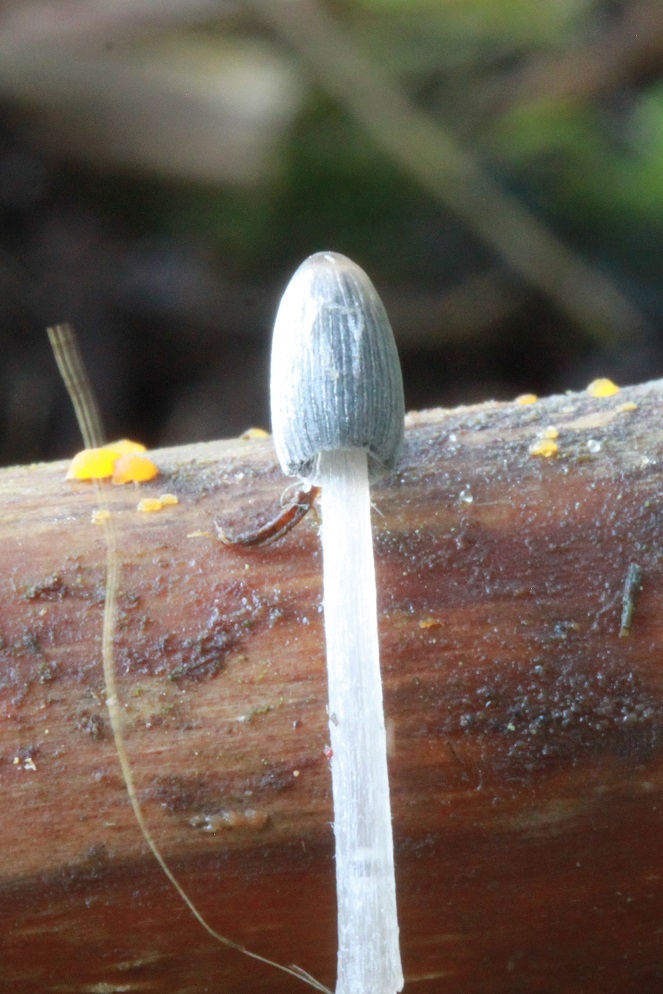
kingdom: Fungi
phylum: Basidiomycota
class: Agaricomycetes
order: Agaricales
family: Psathyrellaceae
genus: Coprinopsis
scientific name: Coprinopsis radiata
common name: lille gødnings-blækhat
